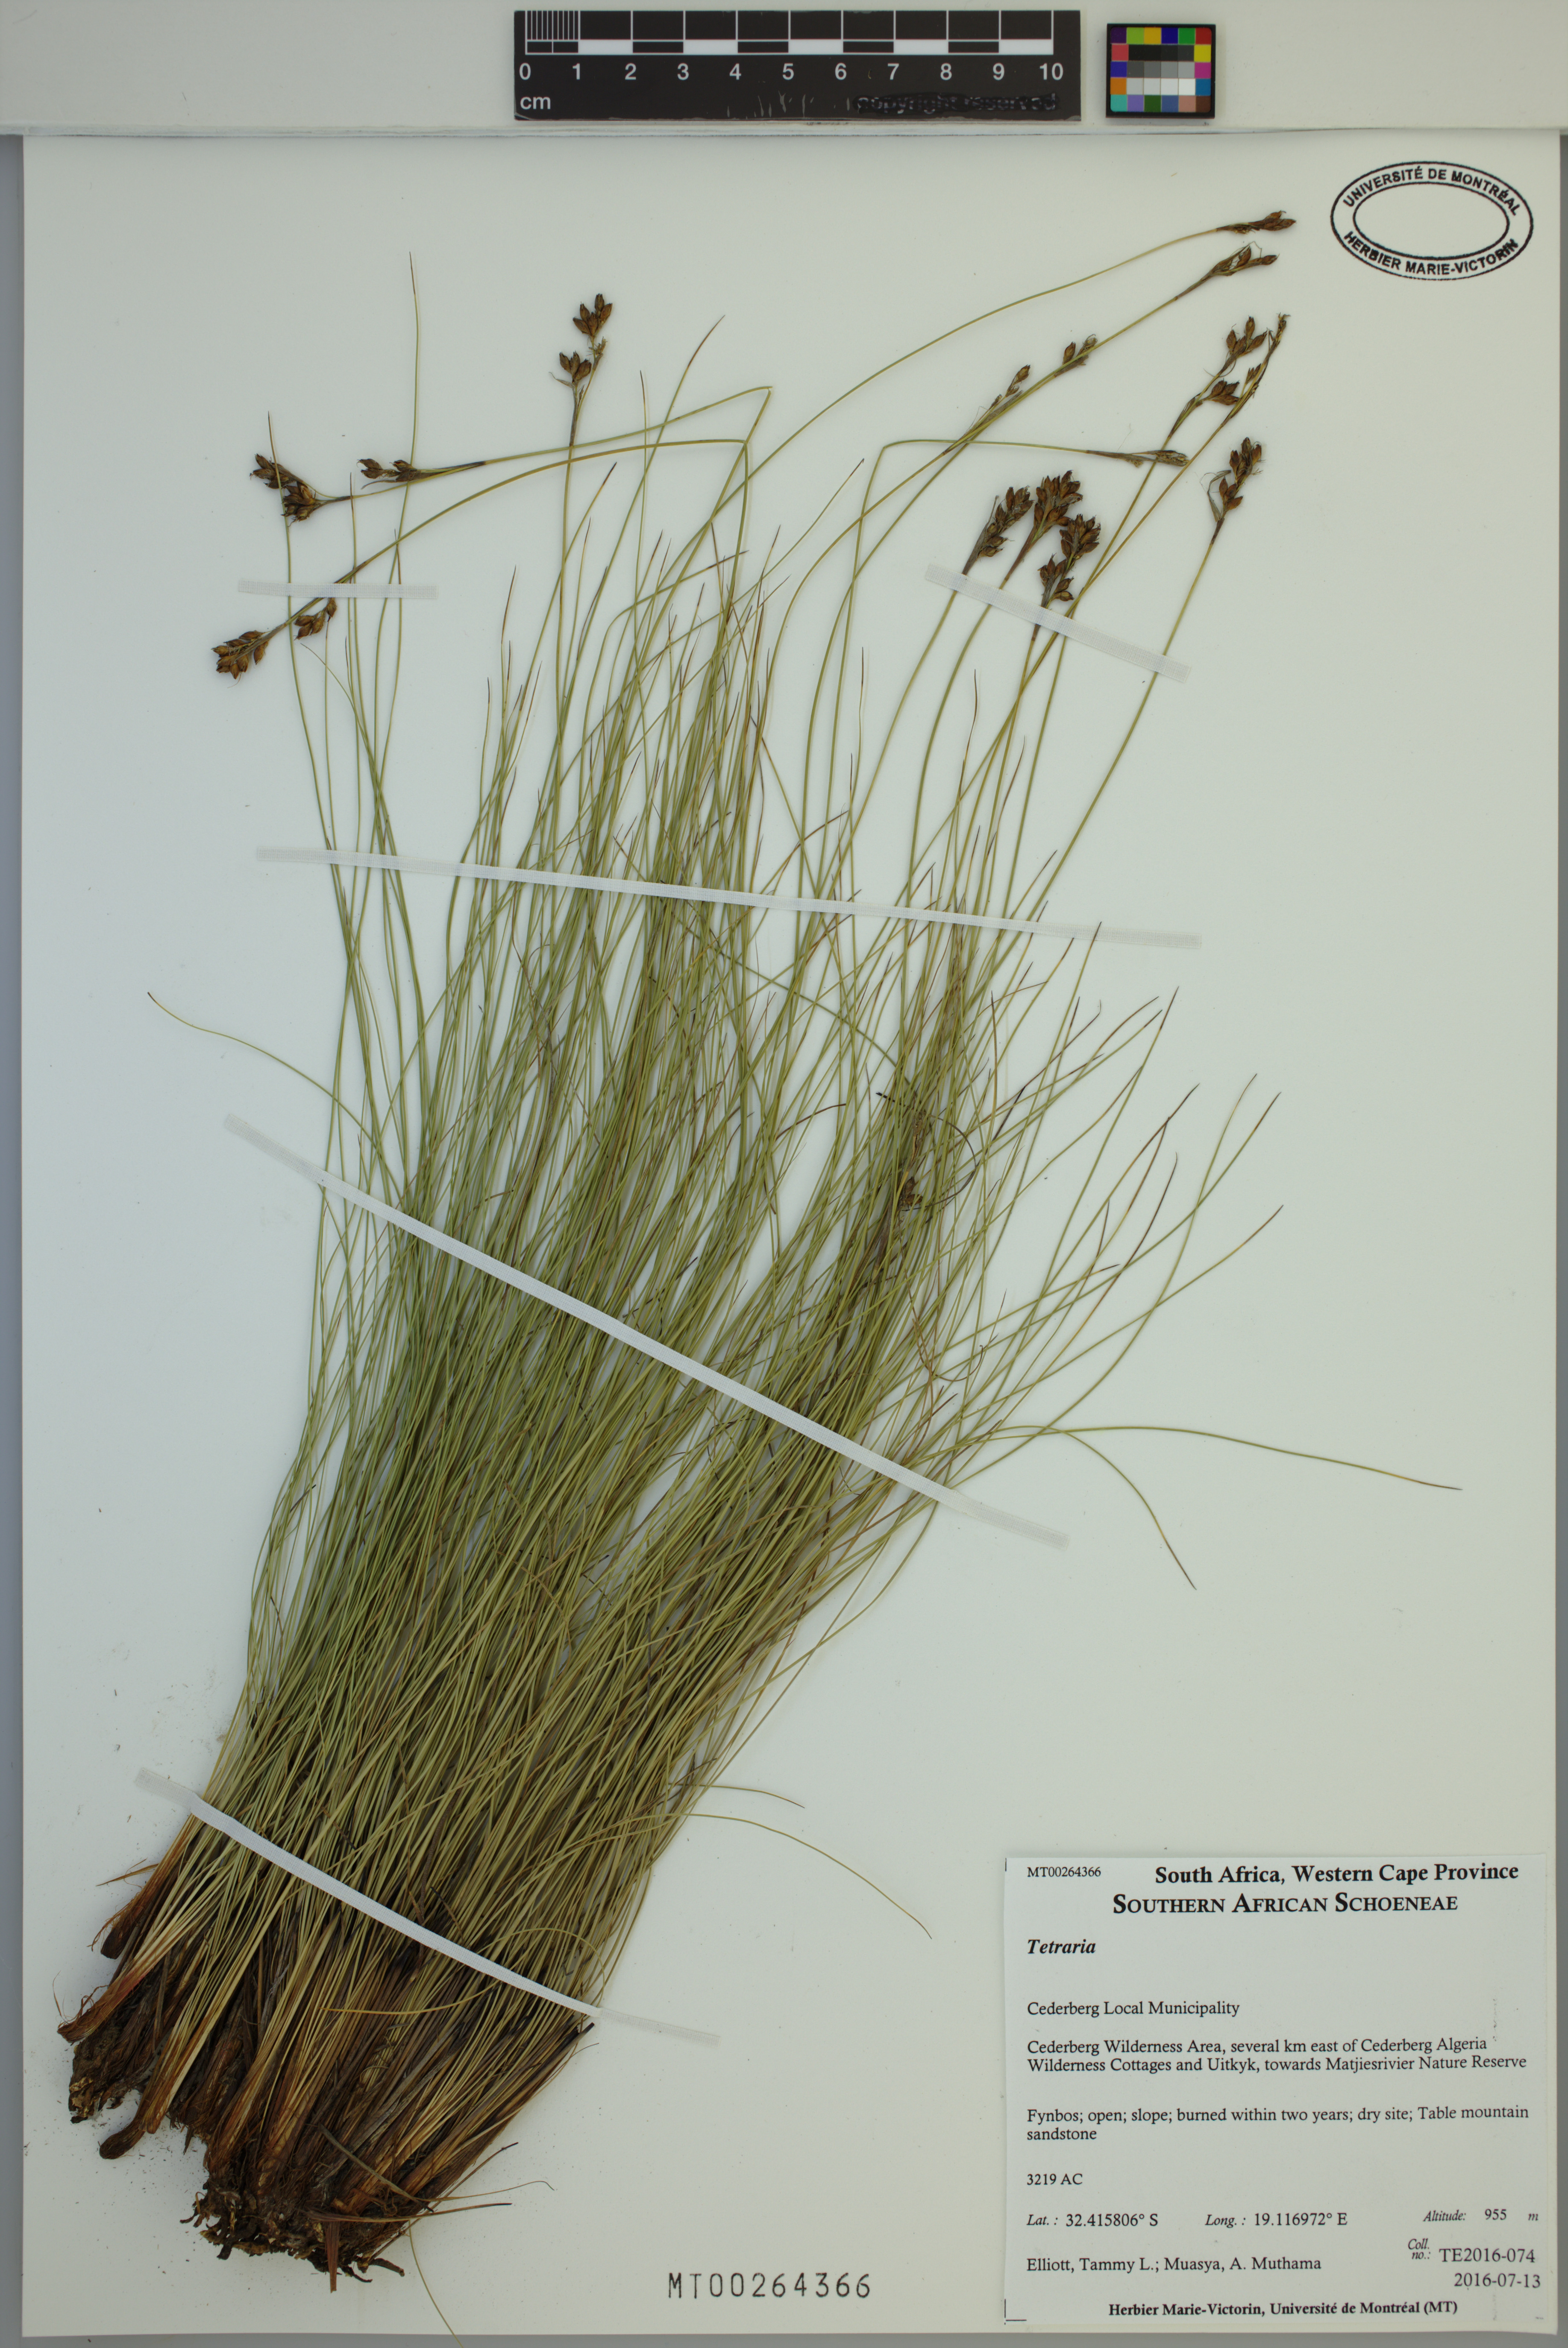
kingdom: Plantae
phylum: Tracheophyta
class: Liliopsida
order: Poales
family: Cyperaceae
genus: Tetraria
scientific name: Tetraria
